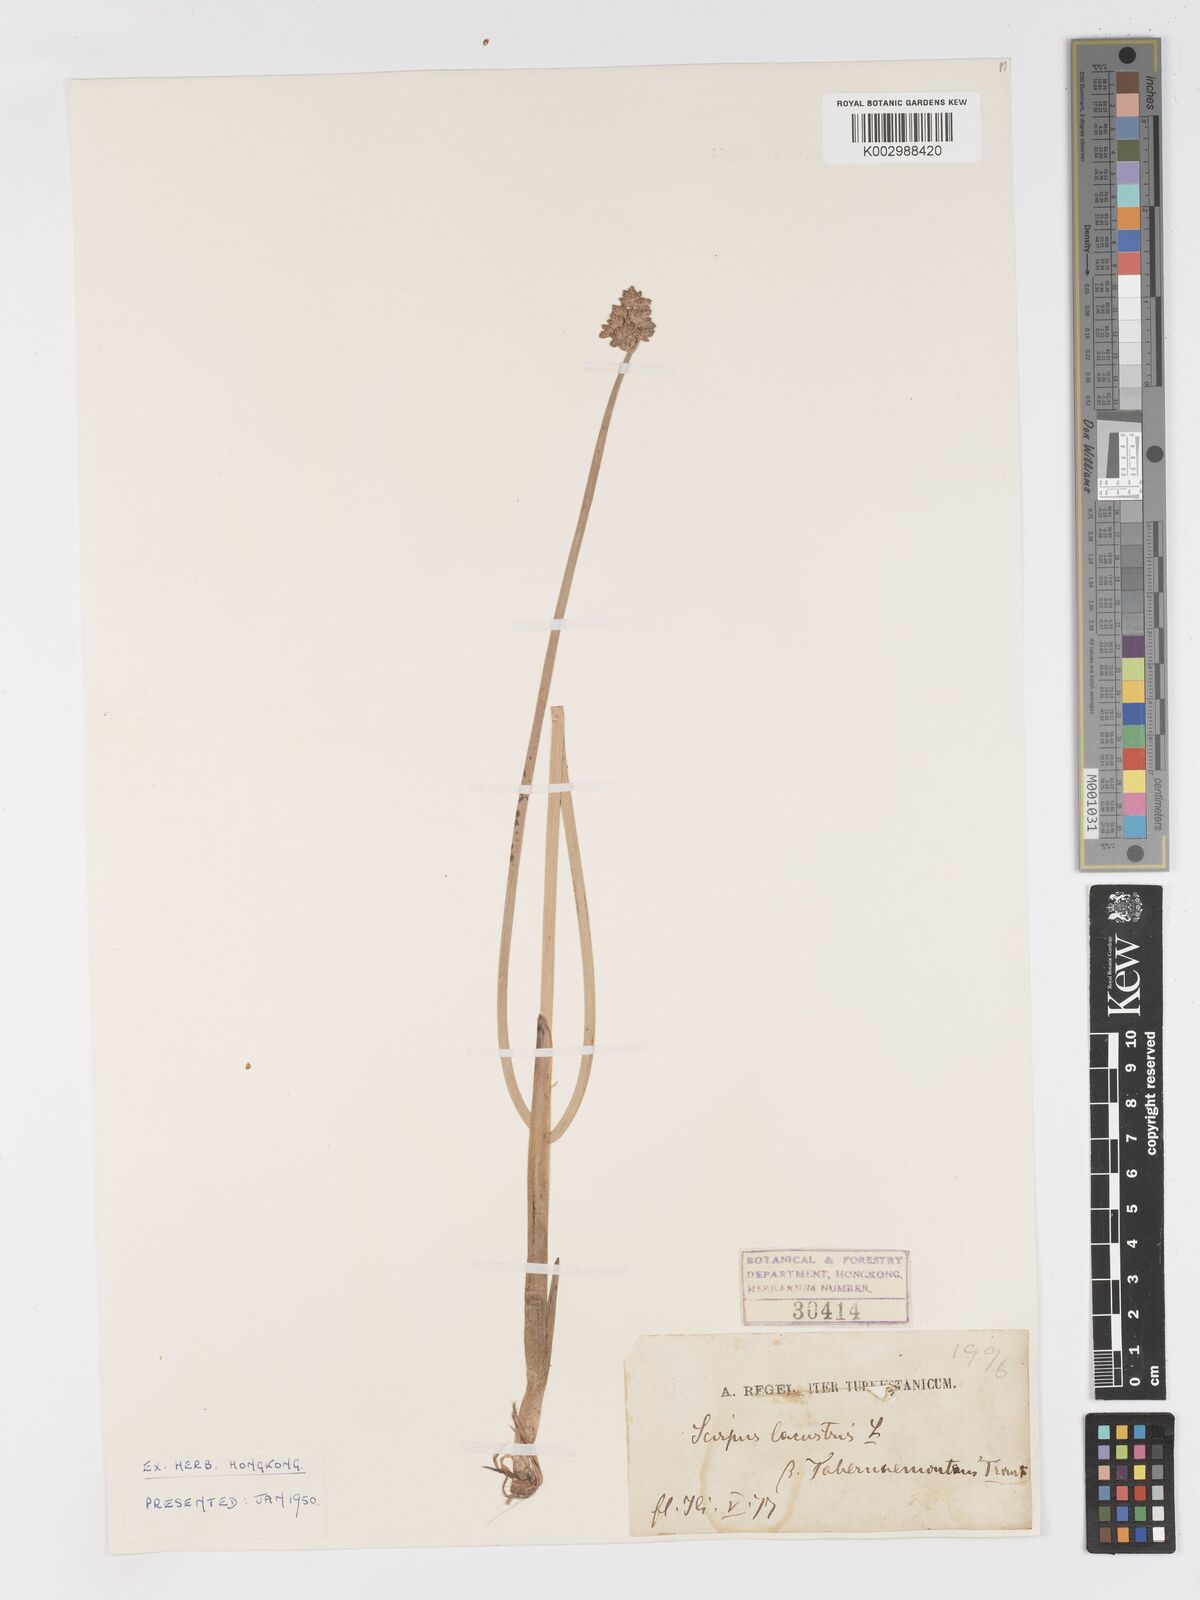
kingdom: Plantae
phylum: Tracheophyta
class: Liliopsida
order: Poales
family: Cyperaceae
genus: Schoenoplectus
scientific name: Schoenoplectus lacustris
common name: Common club-rush
